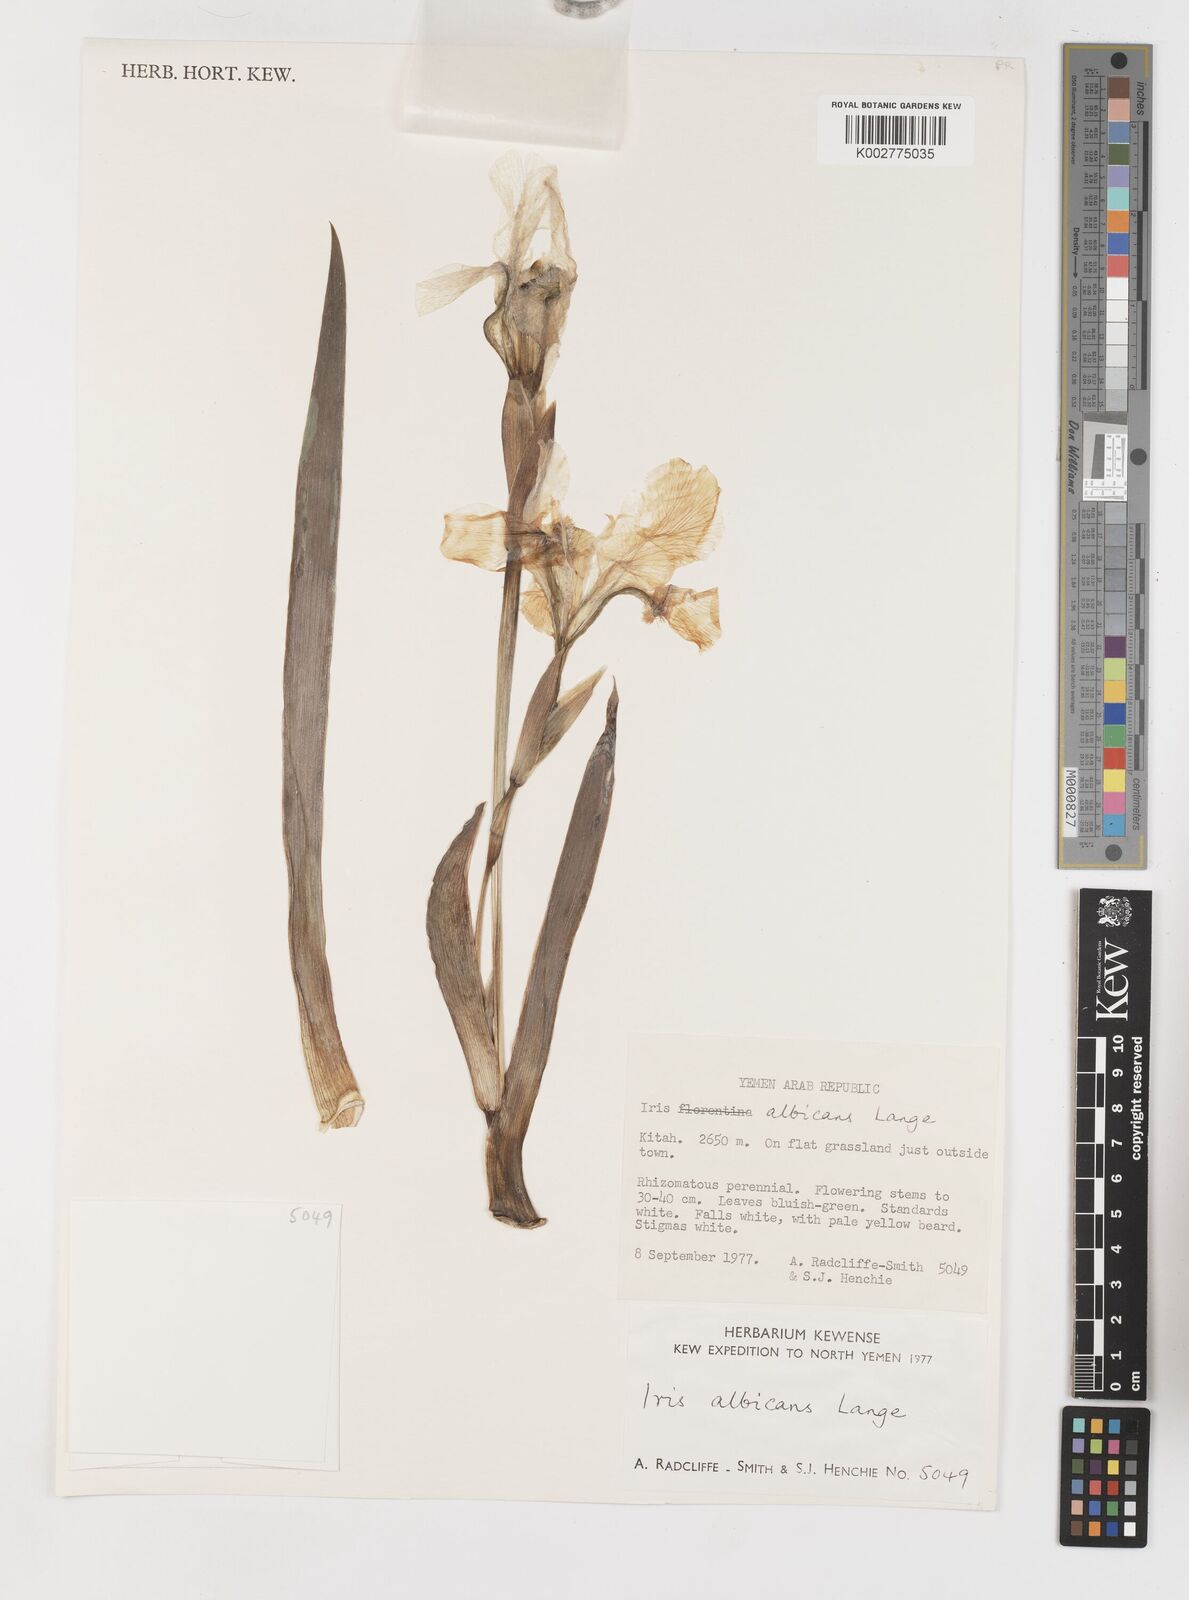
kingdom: Plantae
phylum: Tracheophyta
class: Liliopsida
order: Asparagales
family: Iridaceae
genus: Iris
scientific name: Iris florentina
